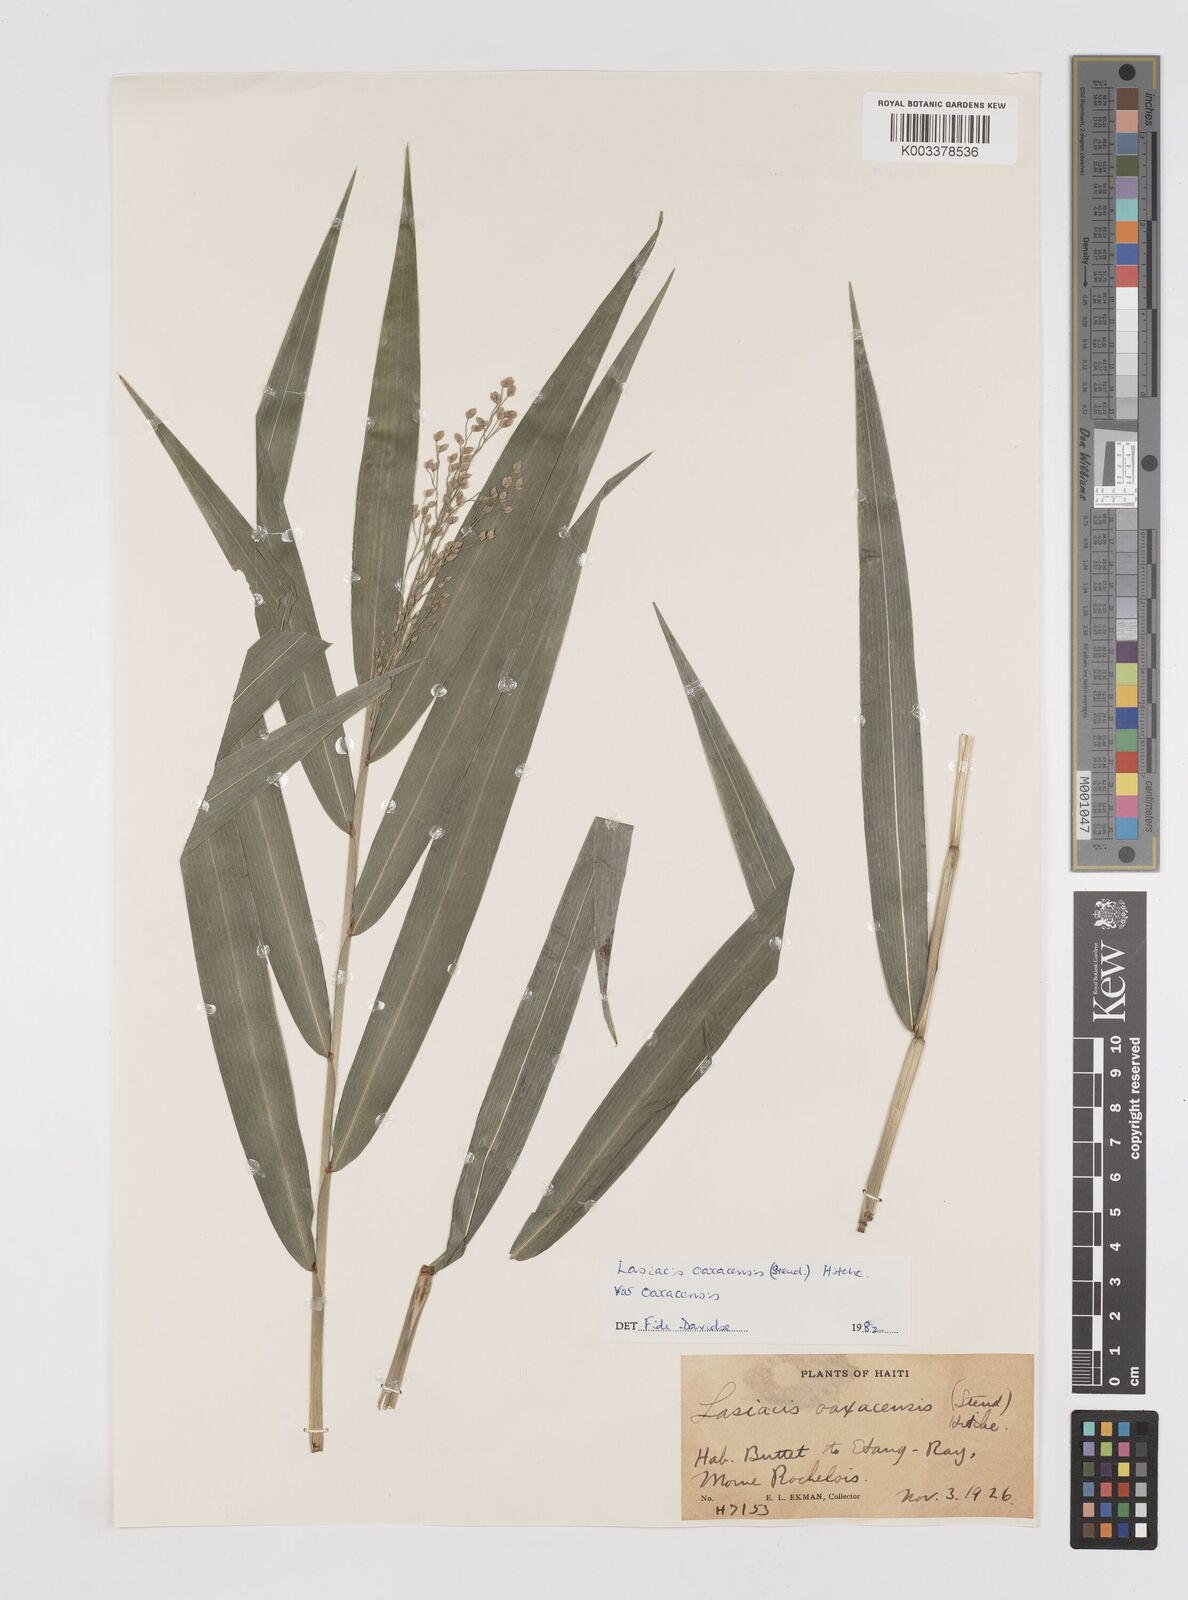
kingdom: Plantae
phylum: Tracheophyta
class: Liliopsida
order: Poales
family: Poaceae
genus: Lasiacis
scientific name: Lasiacis oaxacensis
